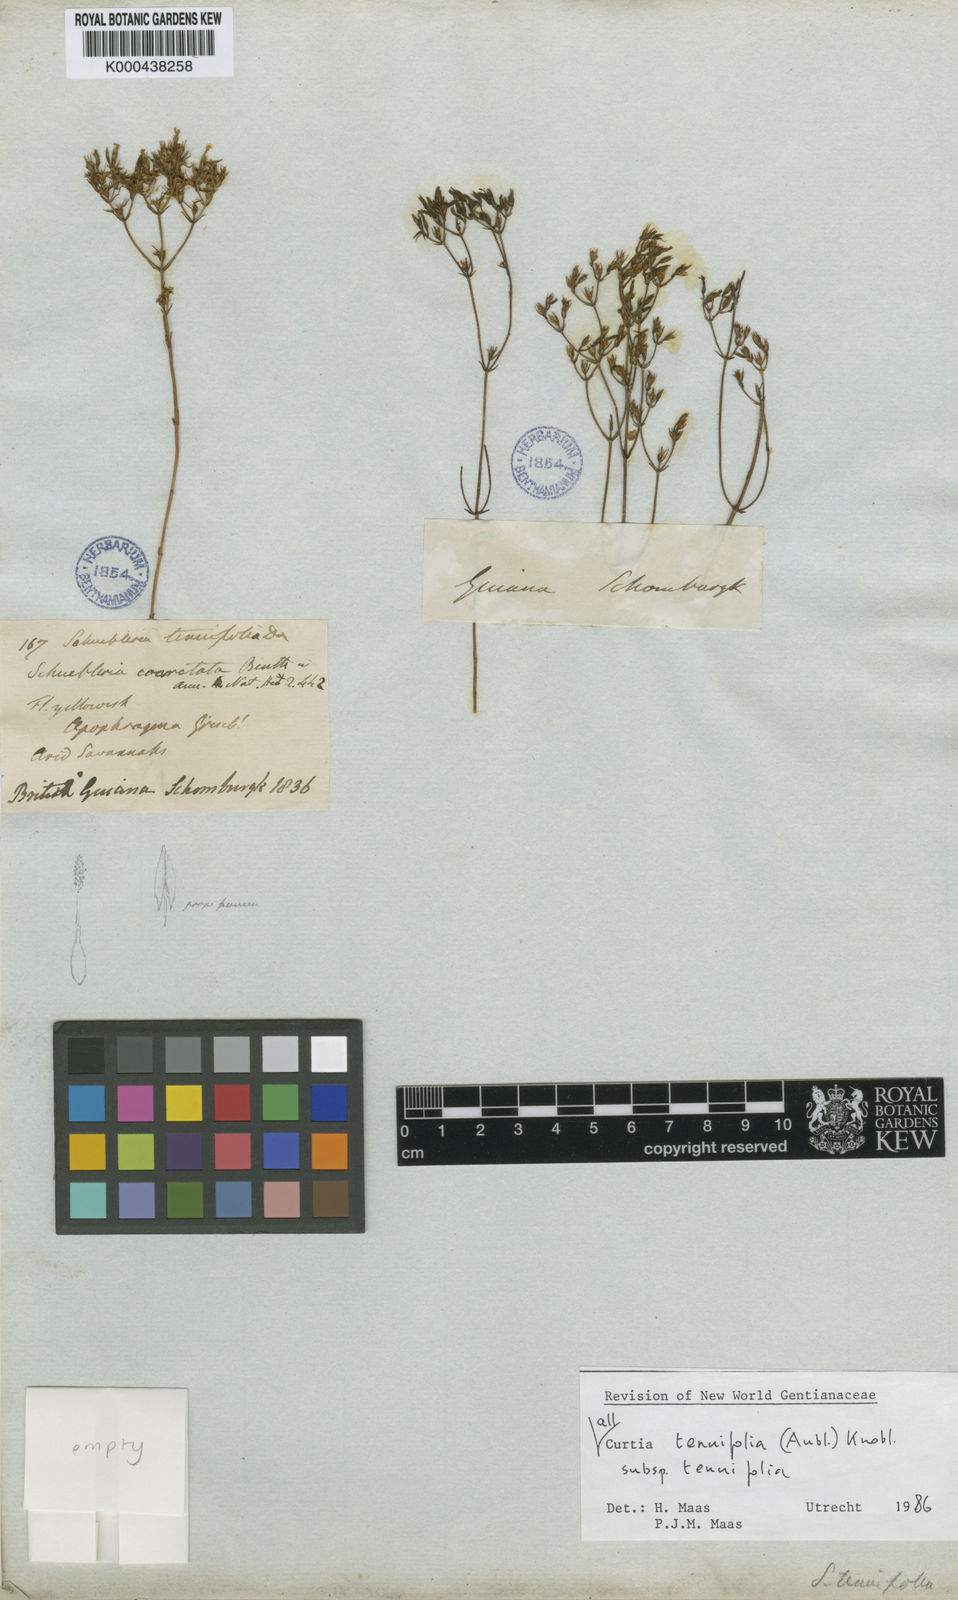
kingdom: Plantae
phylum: Tracheophyta
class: Magnoliopsida
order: Gentianales
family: Gentianaceae
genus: Curtia
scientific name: Curtia tenuifolia
